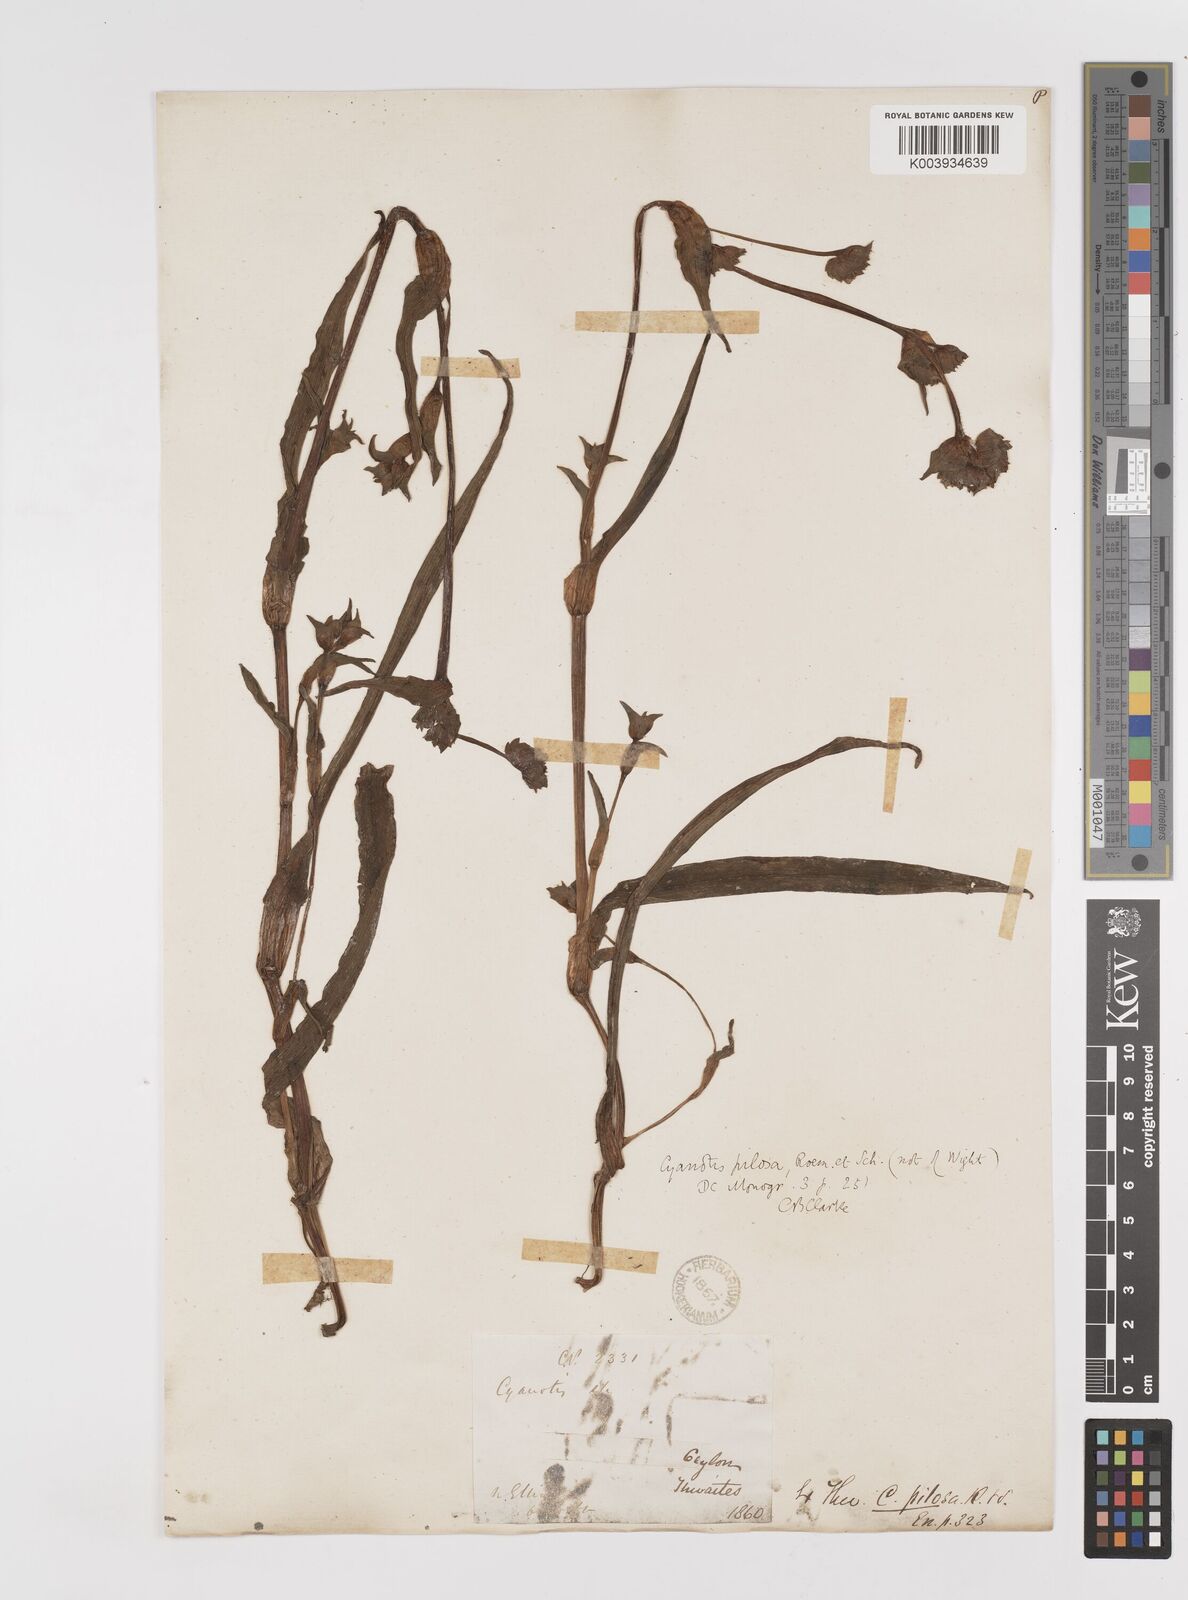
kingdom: Plantae
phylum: Tracheophyta
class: Liliopsida
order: Commelinales
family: Commelinaceae
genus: Cyanotis
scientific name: Cyanotis pilosa
